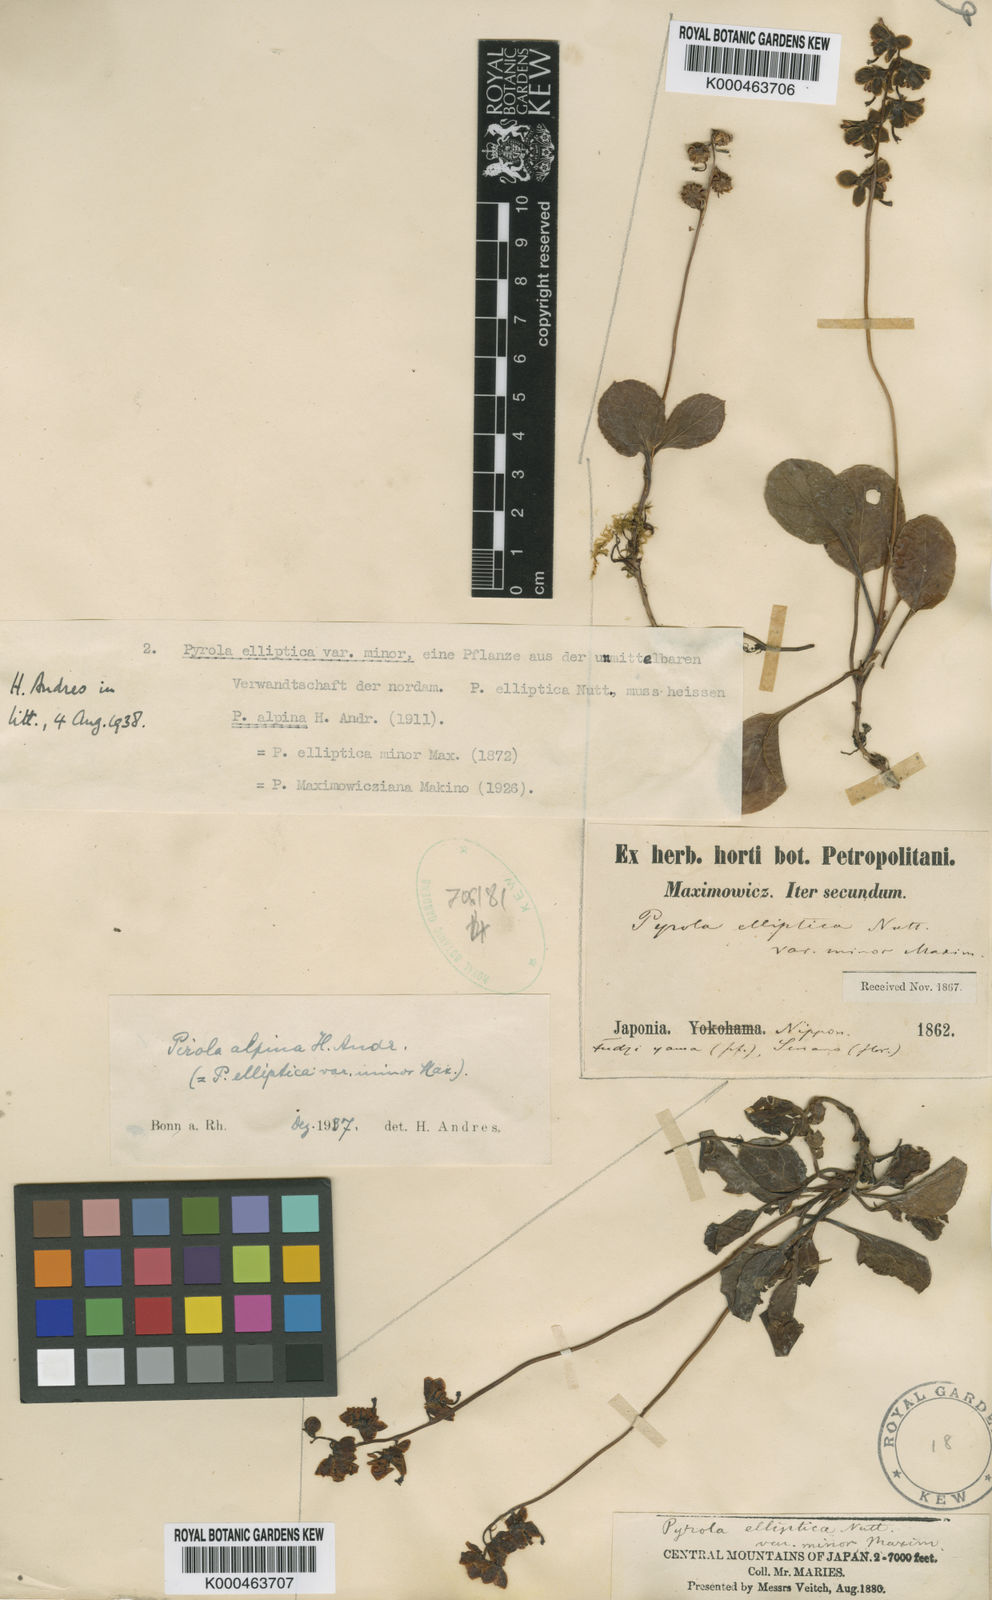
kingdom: Plantae
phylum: Tracheophyta
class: Magnoliopsida
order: Ericales
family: Ericaceae
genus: Pyrola
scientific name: Pyrola alpina
